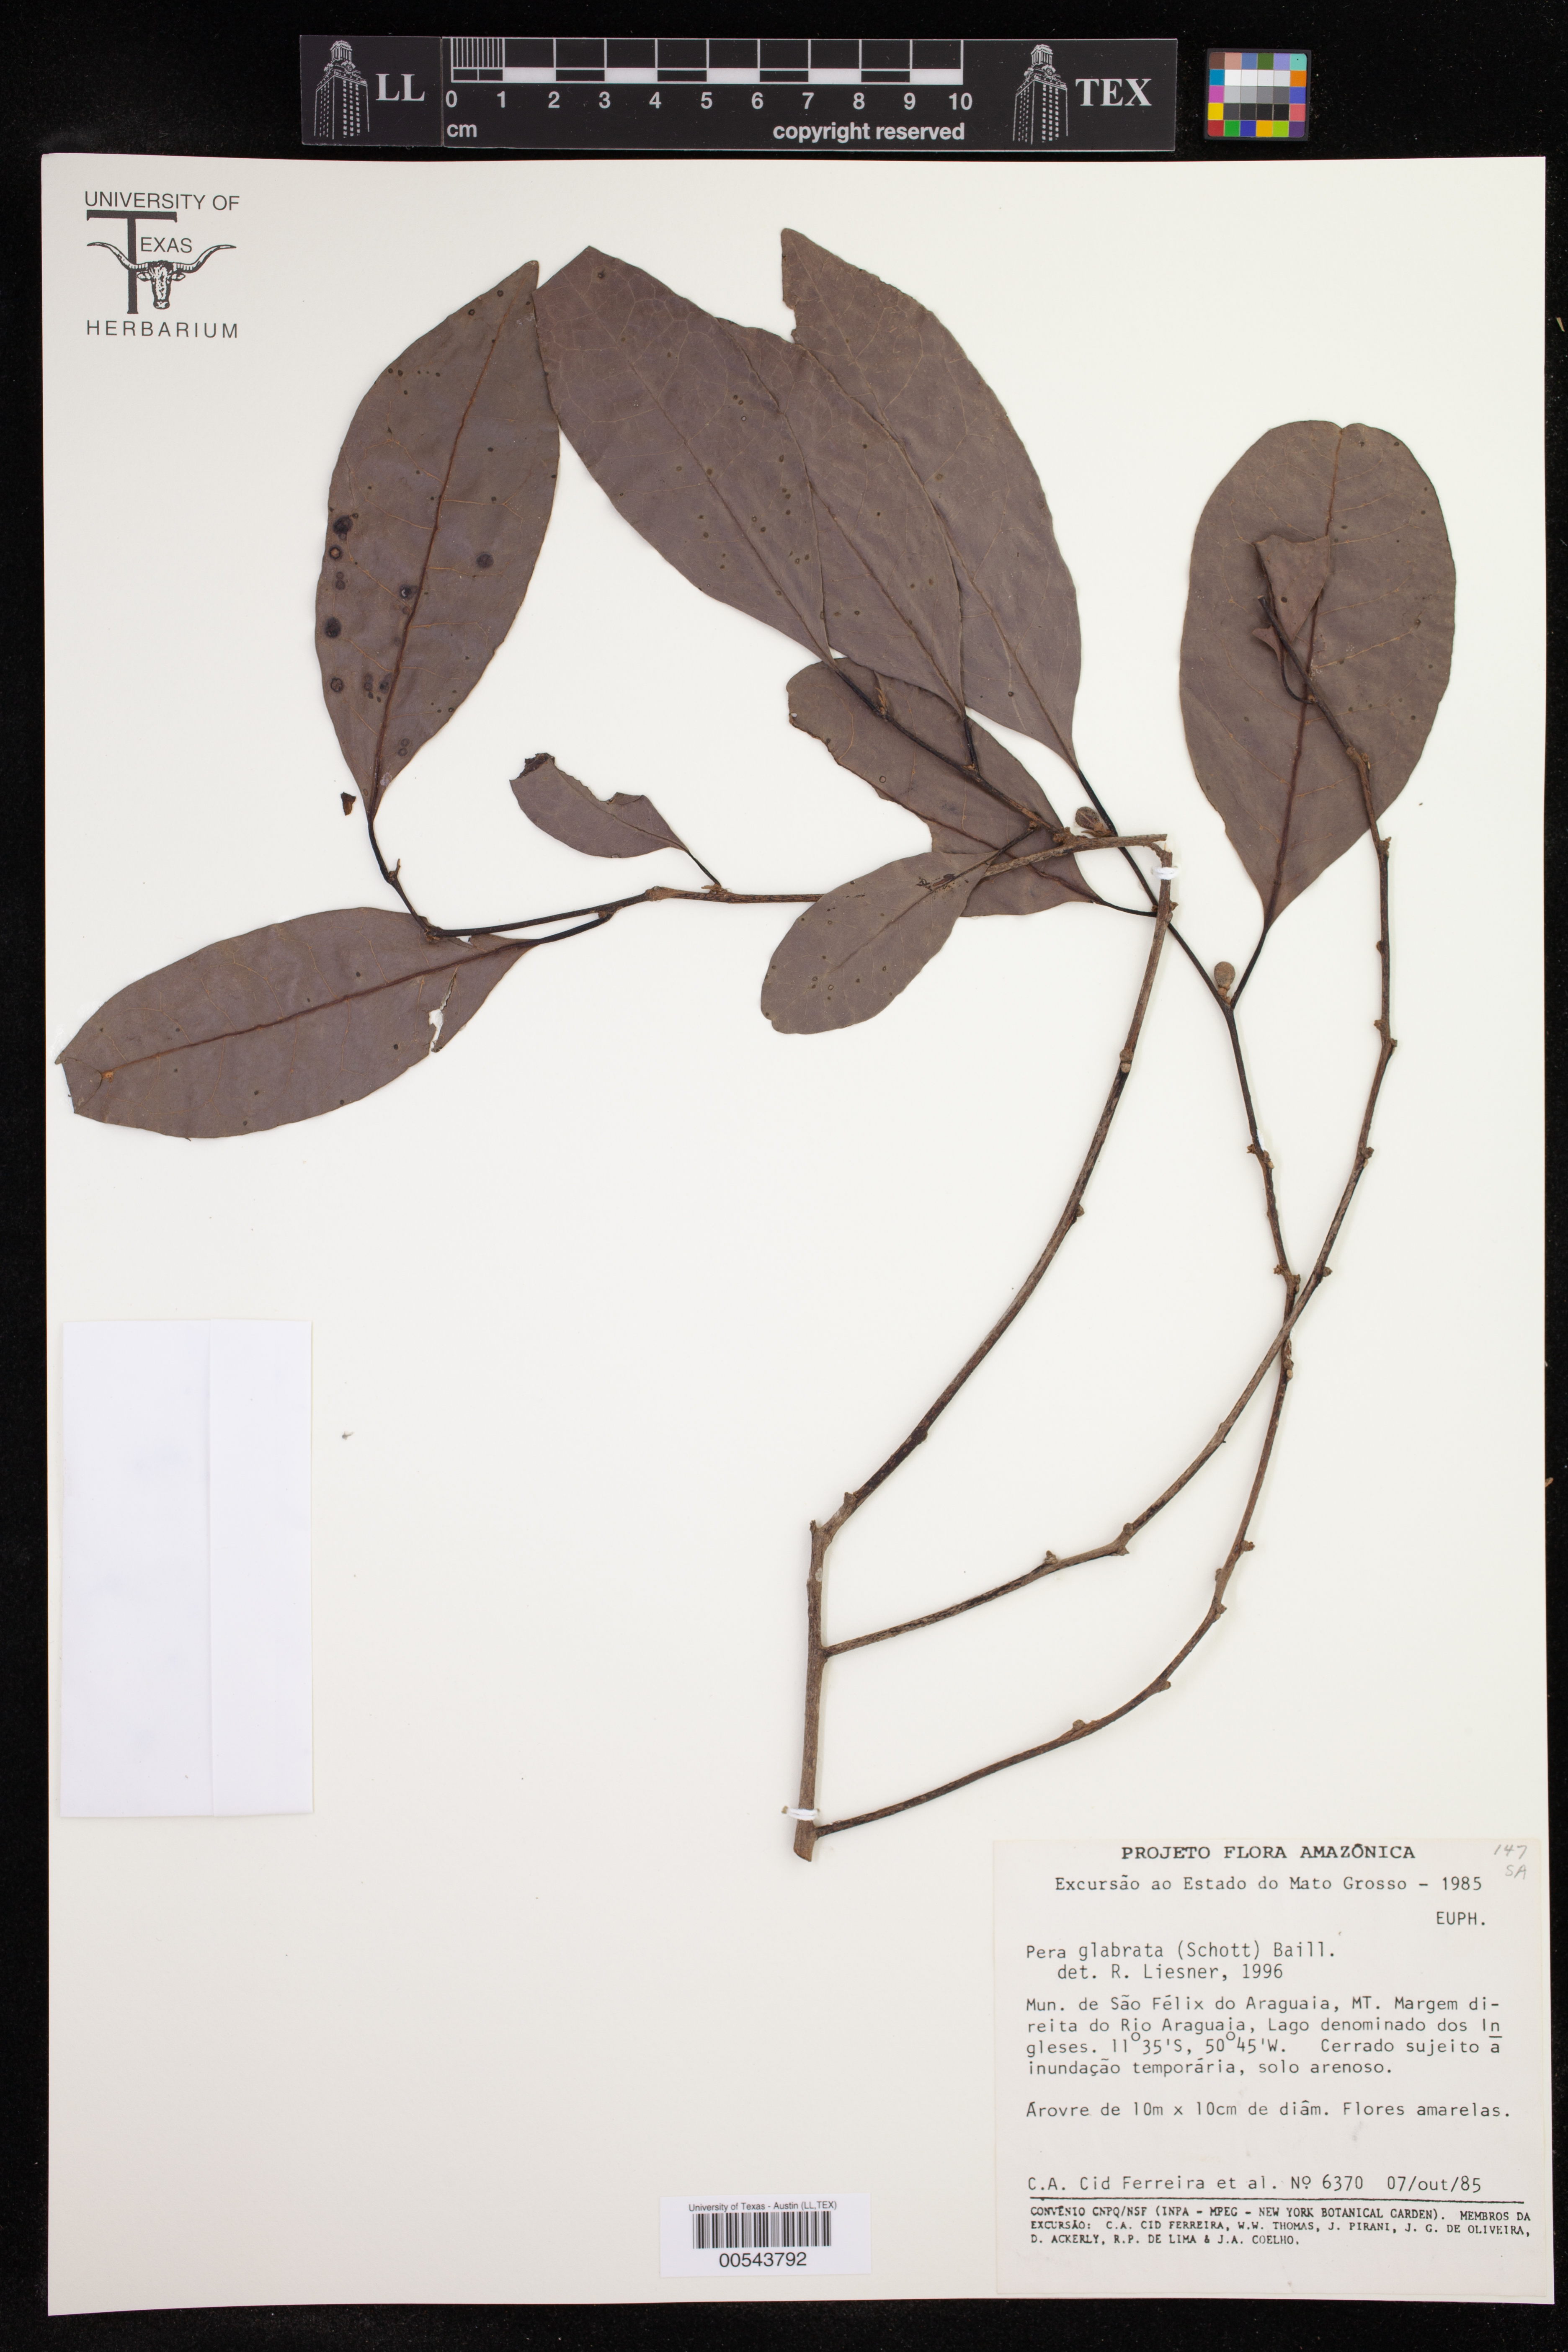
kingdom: Plantae
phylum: Tracheophyta
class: Magnoliopsida
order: Malpighiales
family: Peraceae
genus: Pera
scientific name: Pera glabrata
